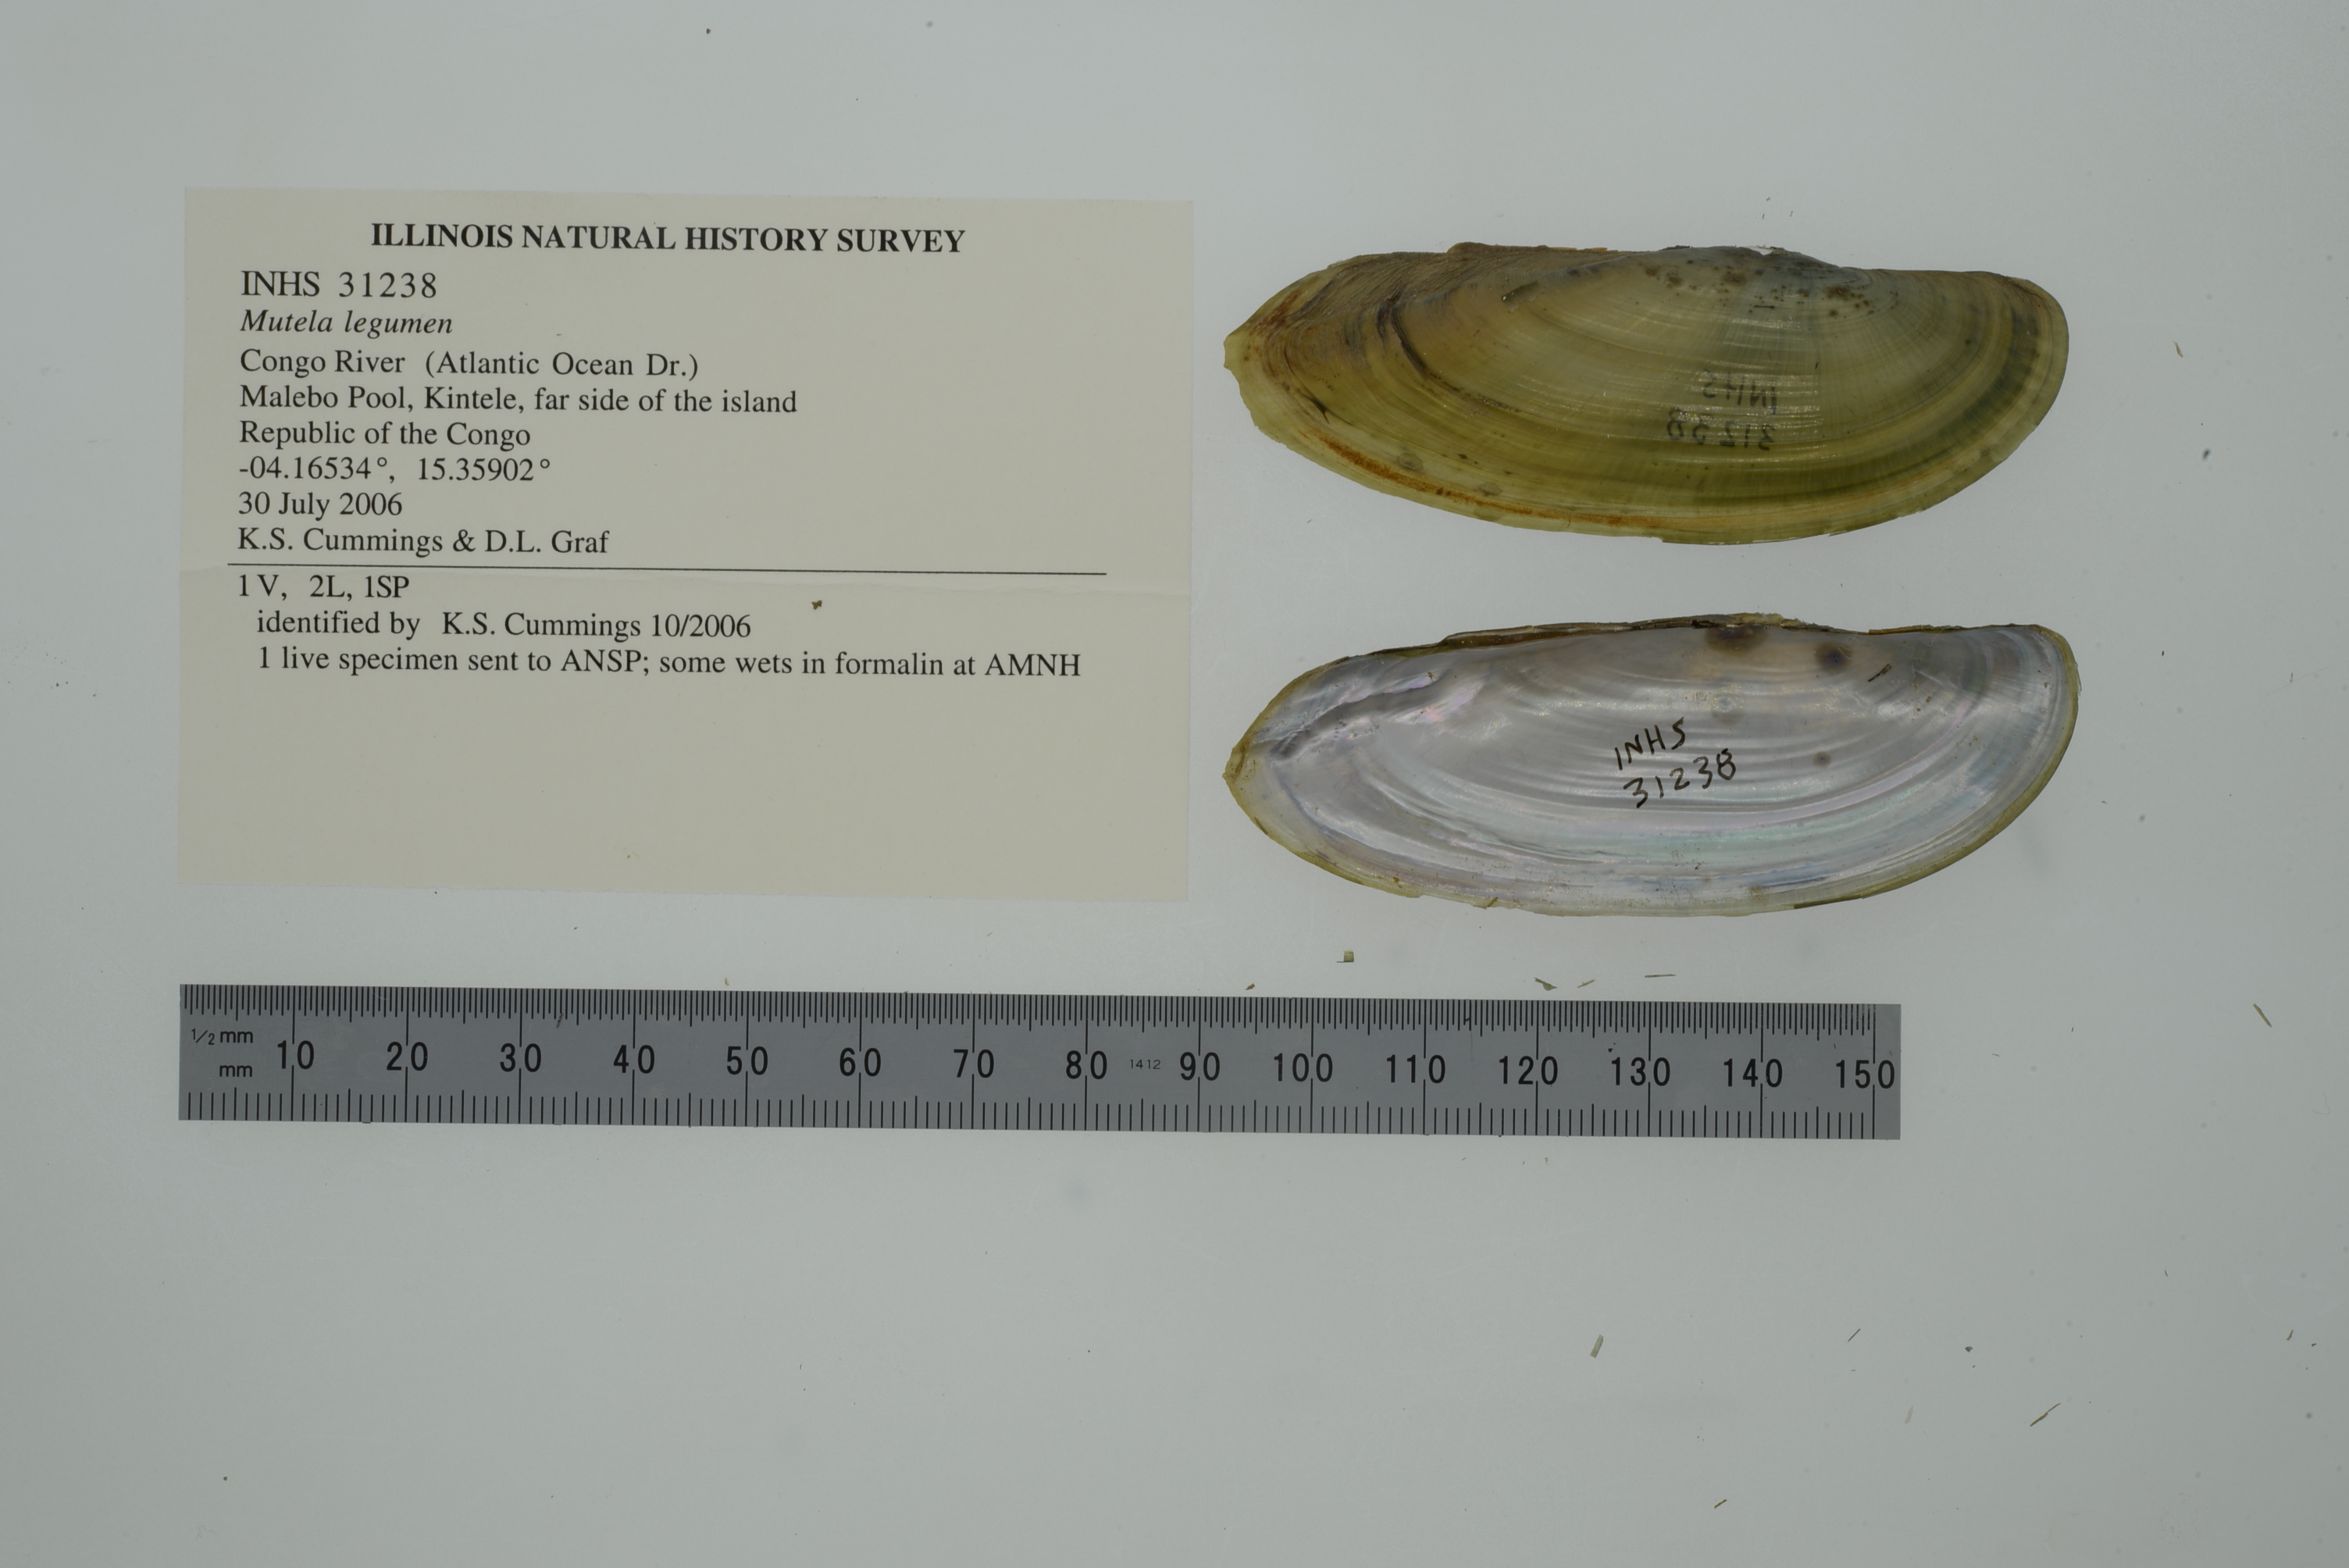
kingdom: Animalia
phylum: Mollusca
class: Bivalvia
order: Unionida
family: Iridinidae
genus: Mutela
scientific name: Mutela legumen
